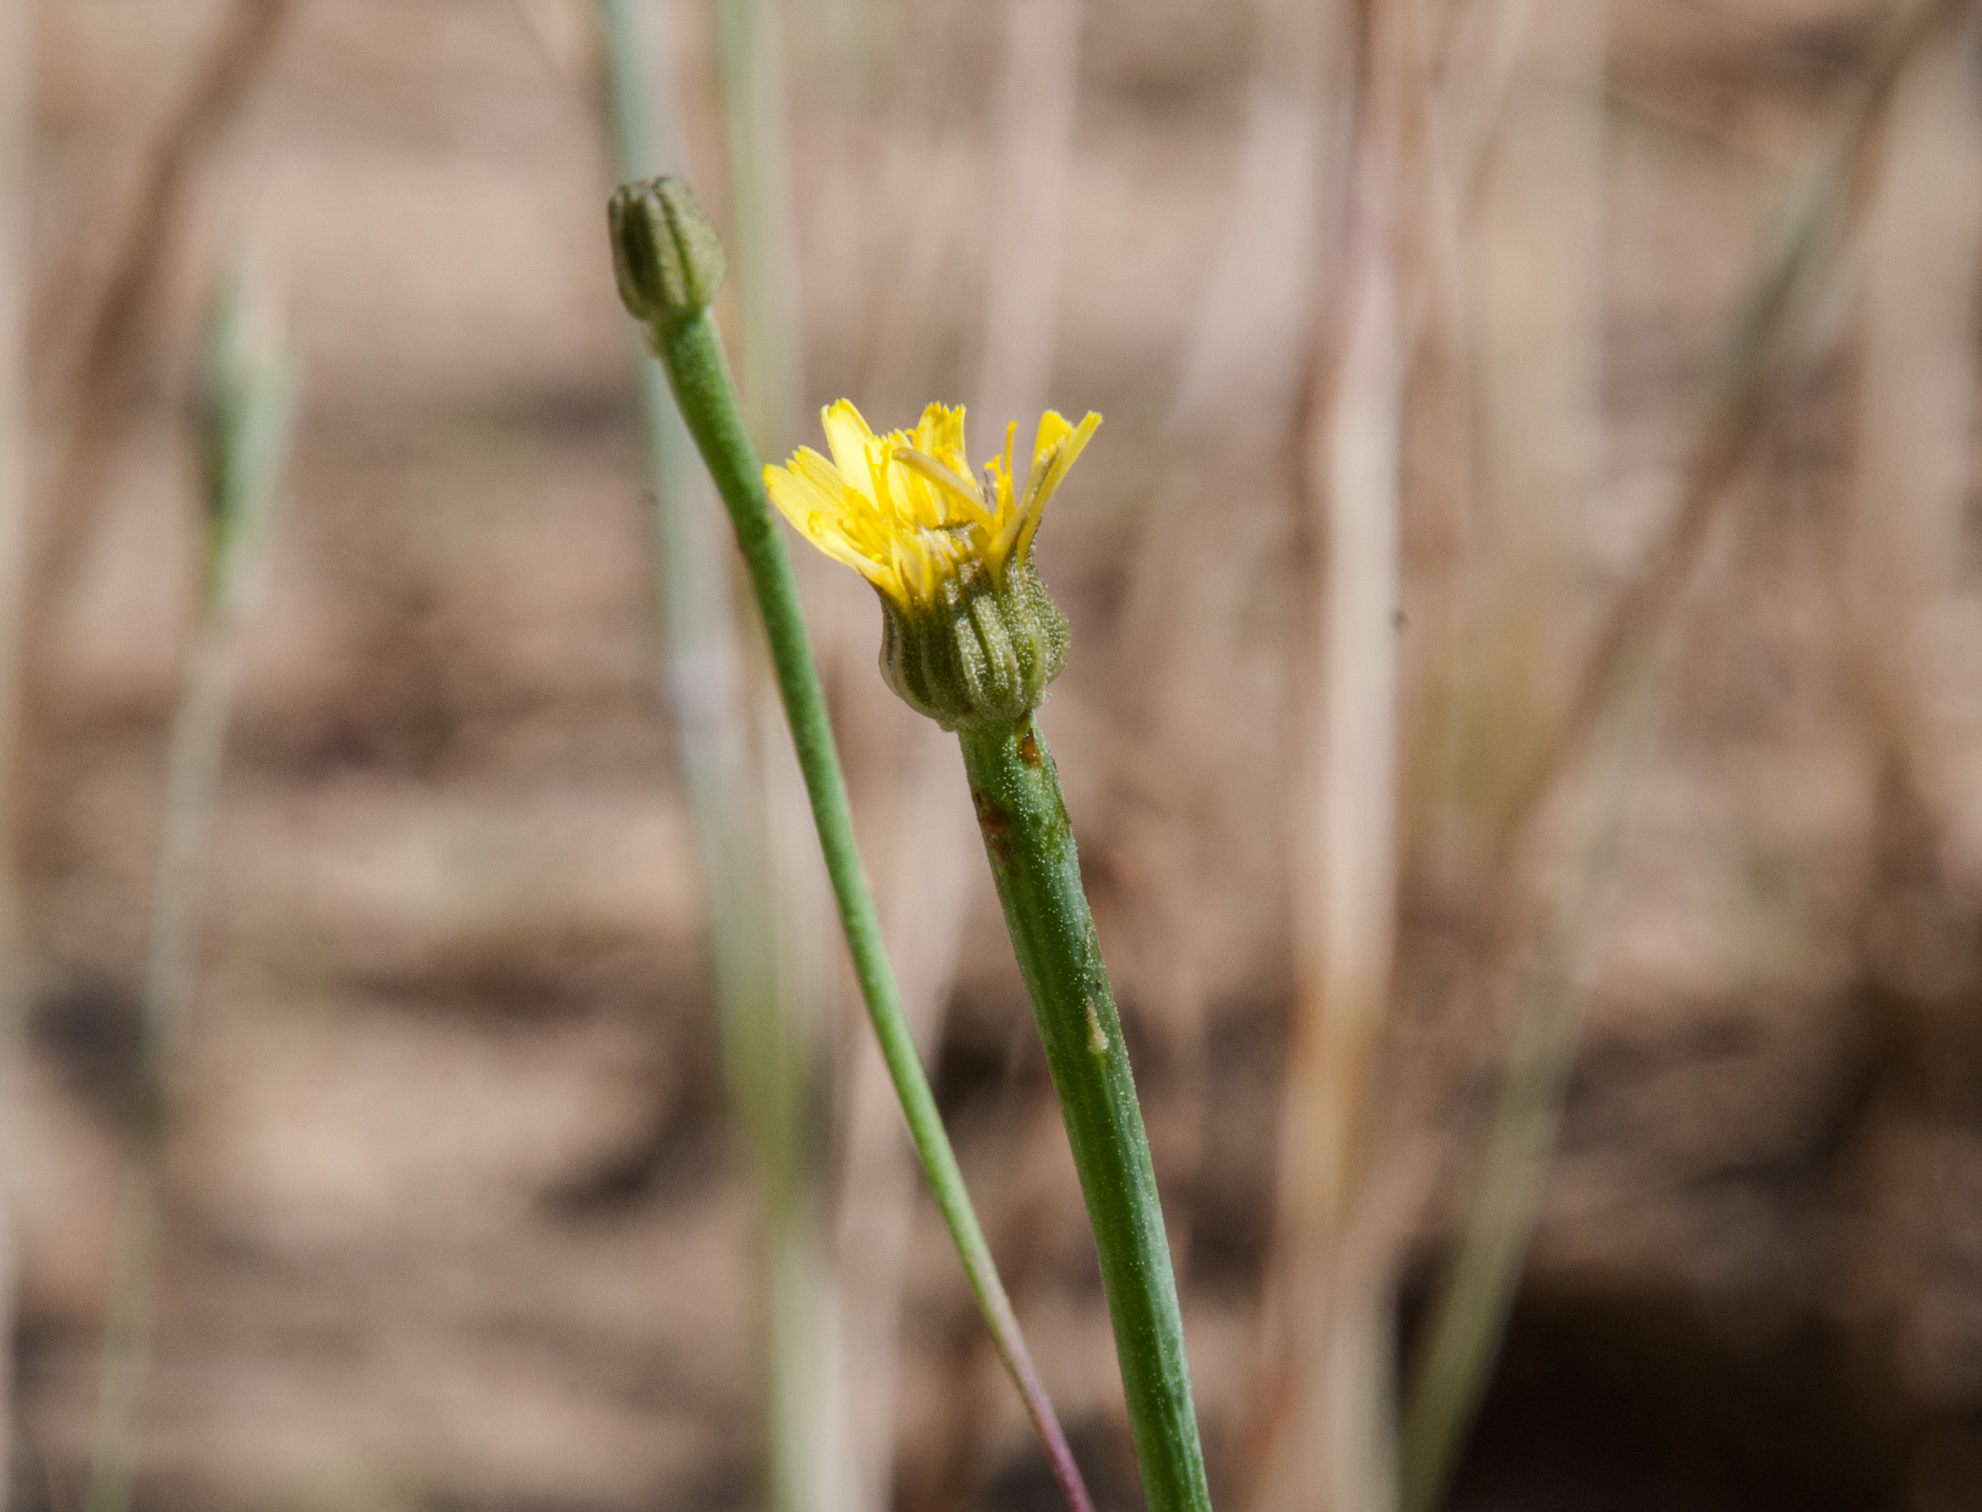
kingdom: Plantae
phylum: Tracheophyta
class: Magnoliopsida
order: Asterales
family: Asteraceae
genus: Arnoseris
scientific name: Arnoseris minima
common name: Lamb's succory
